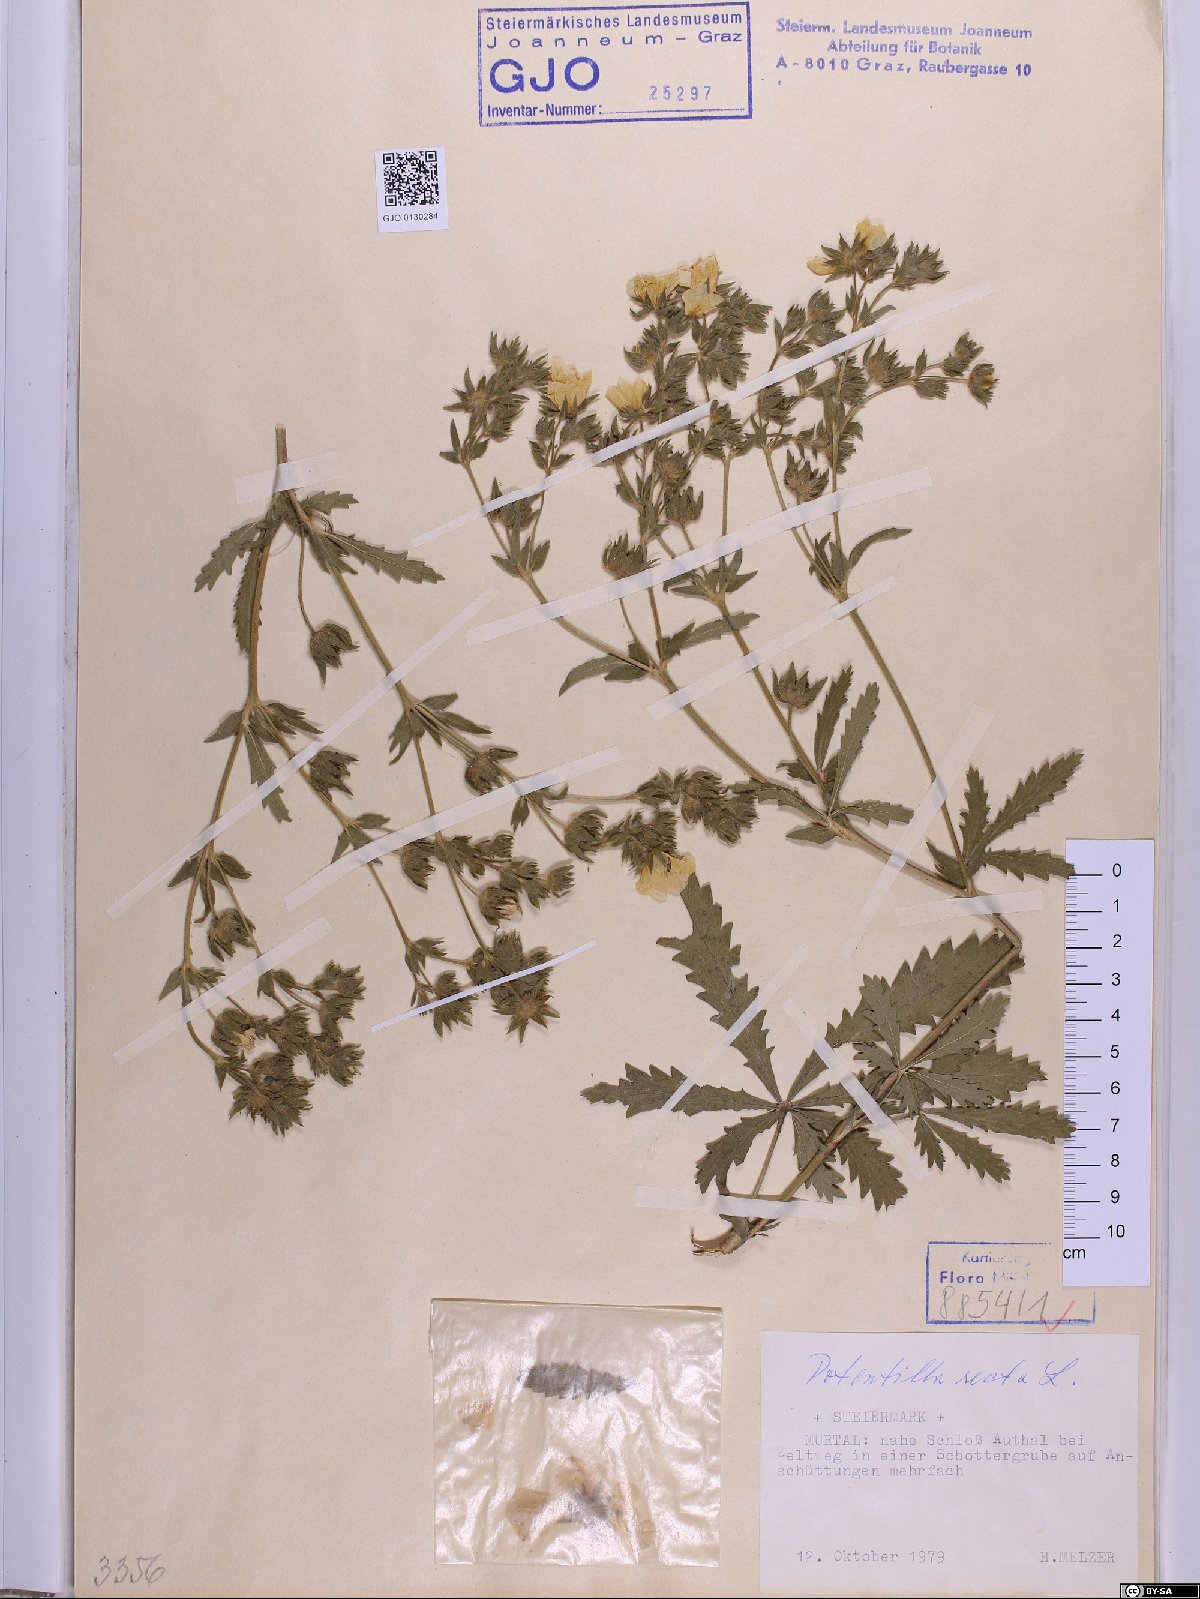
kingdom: Plantae
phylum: Tracheophyta
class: Magnoliopsida
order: Rosales
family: Rosaceae
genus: Potentilla
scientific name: Potentilla recta
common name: Sulphur cinquefoil
